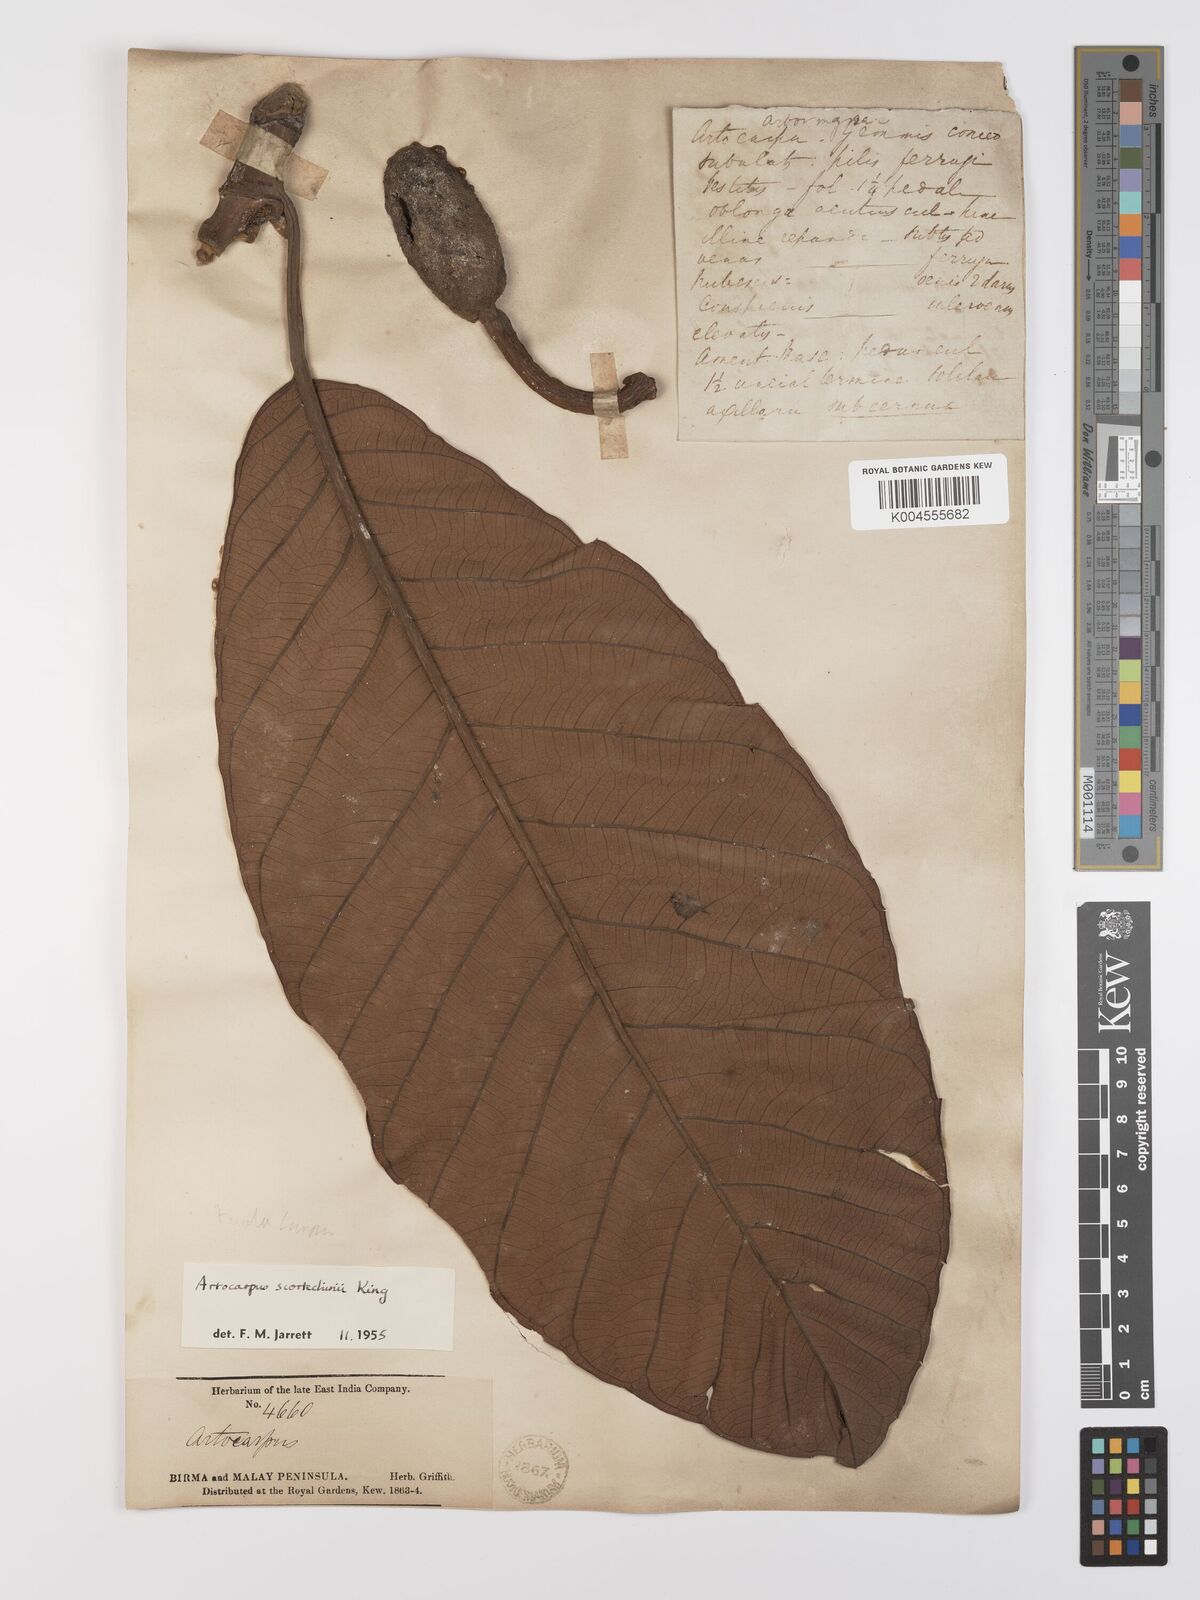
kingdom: Plantae
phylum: Tracheophyta
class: Magnoliopsida
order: Rosales
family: Moraceae
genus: Artocarpus
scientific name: Artocarpus elasticus
